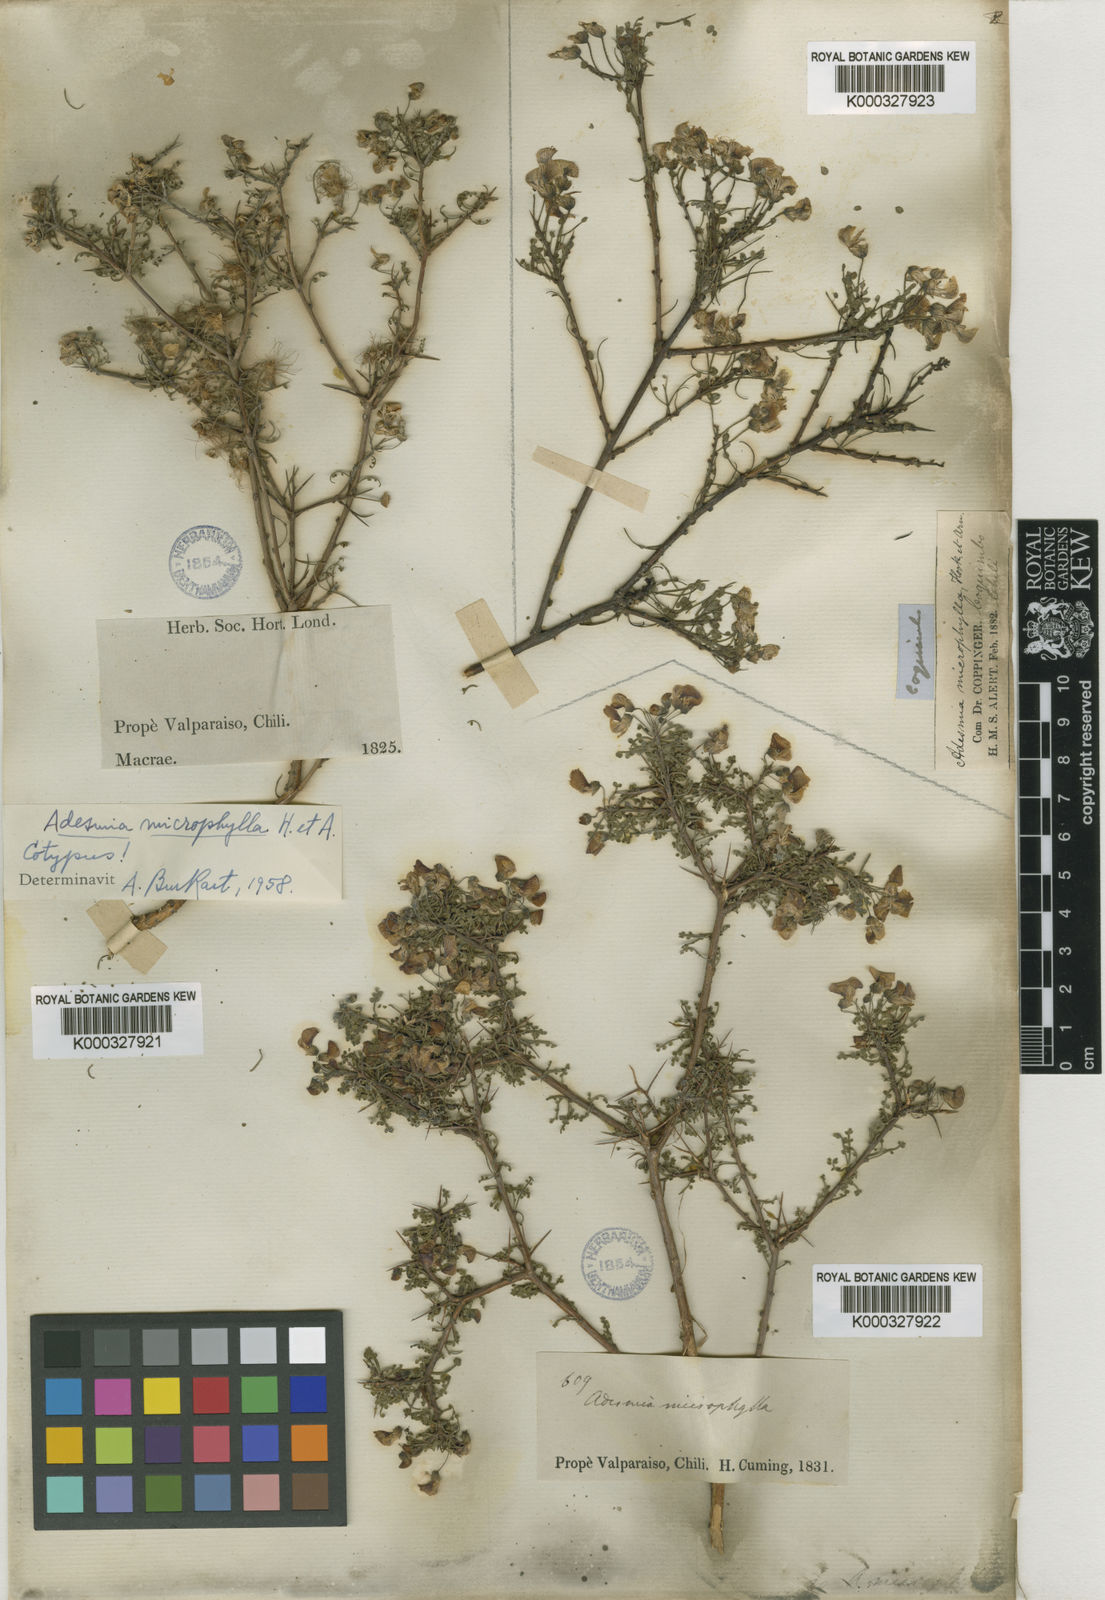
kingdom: Plantae
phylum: Tracheophyta
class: Magnoliopsida
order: Fabales
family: Fabaceae
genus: Adesmia
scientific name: Adesmia microphylla
